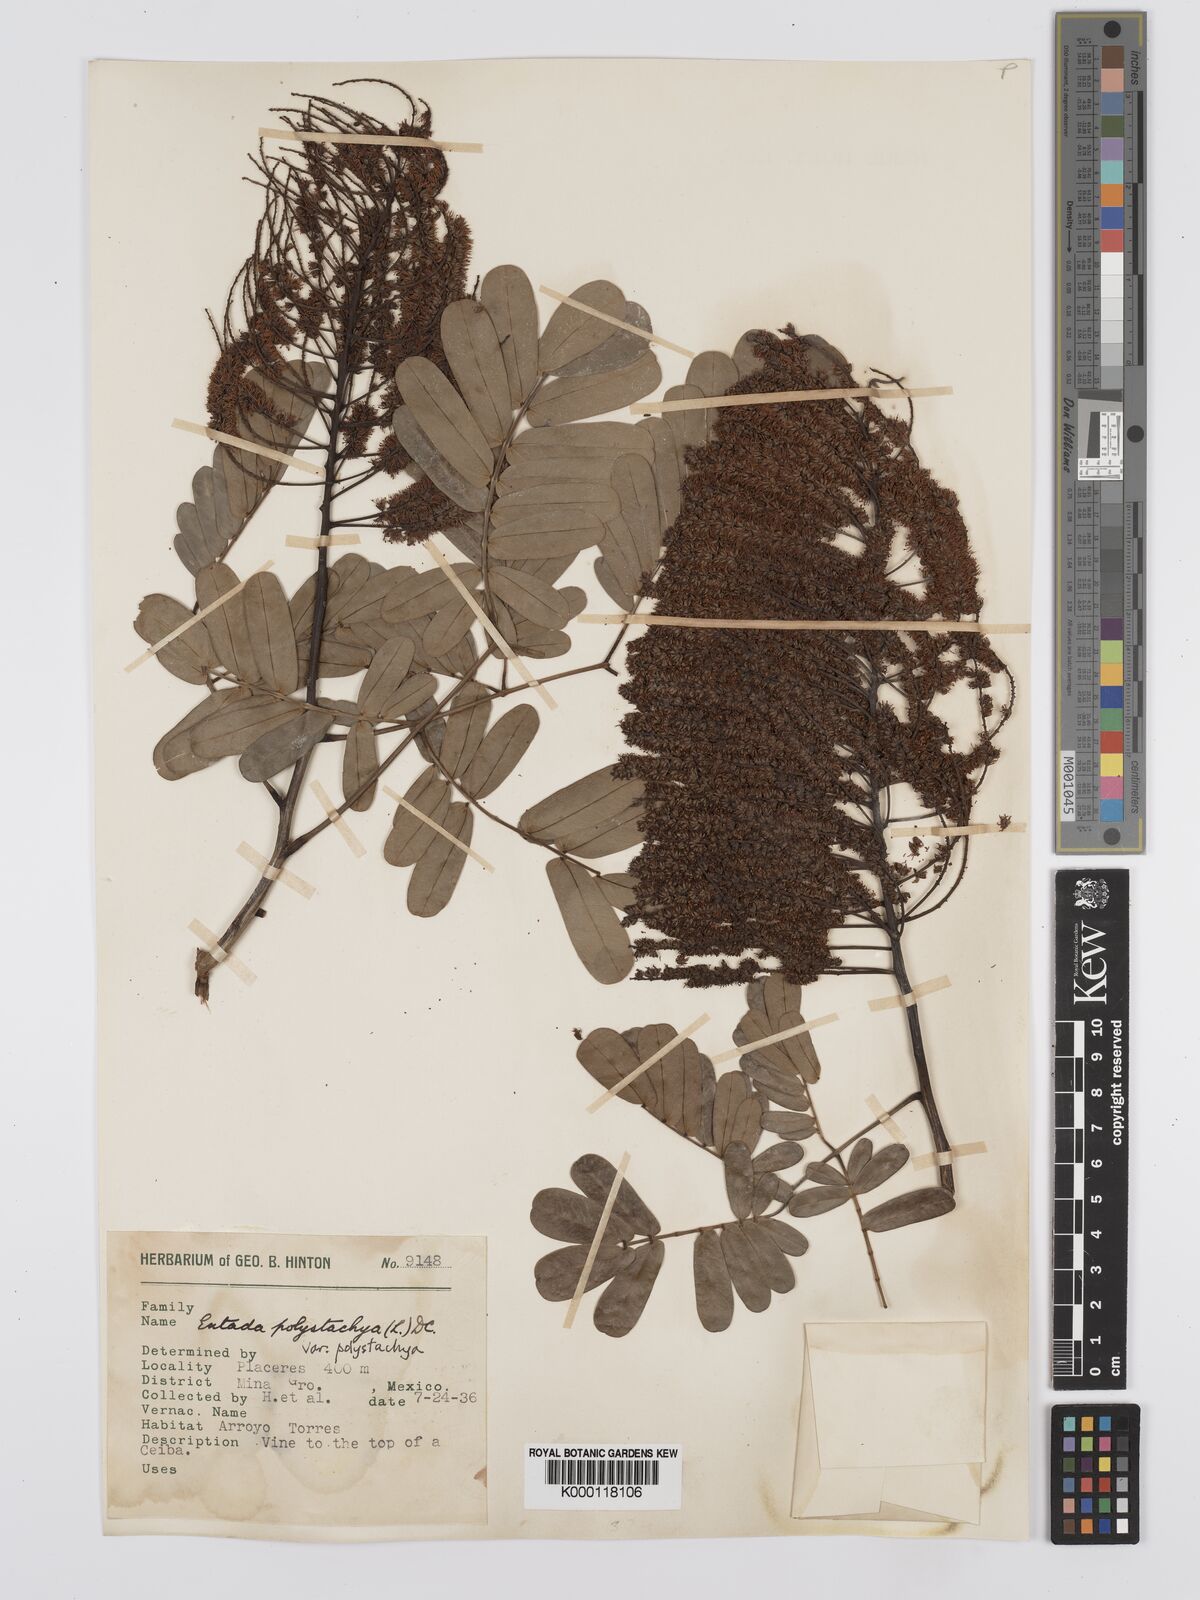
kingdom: Plantae
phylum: Tracheophyta
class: Magnoliopsida
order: Fabales
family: Fabaceae
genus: Entada
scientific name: Entada polystachya
